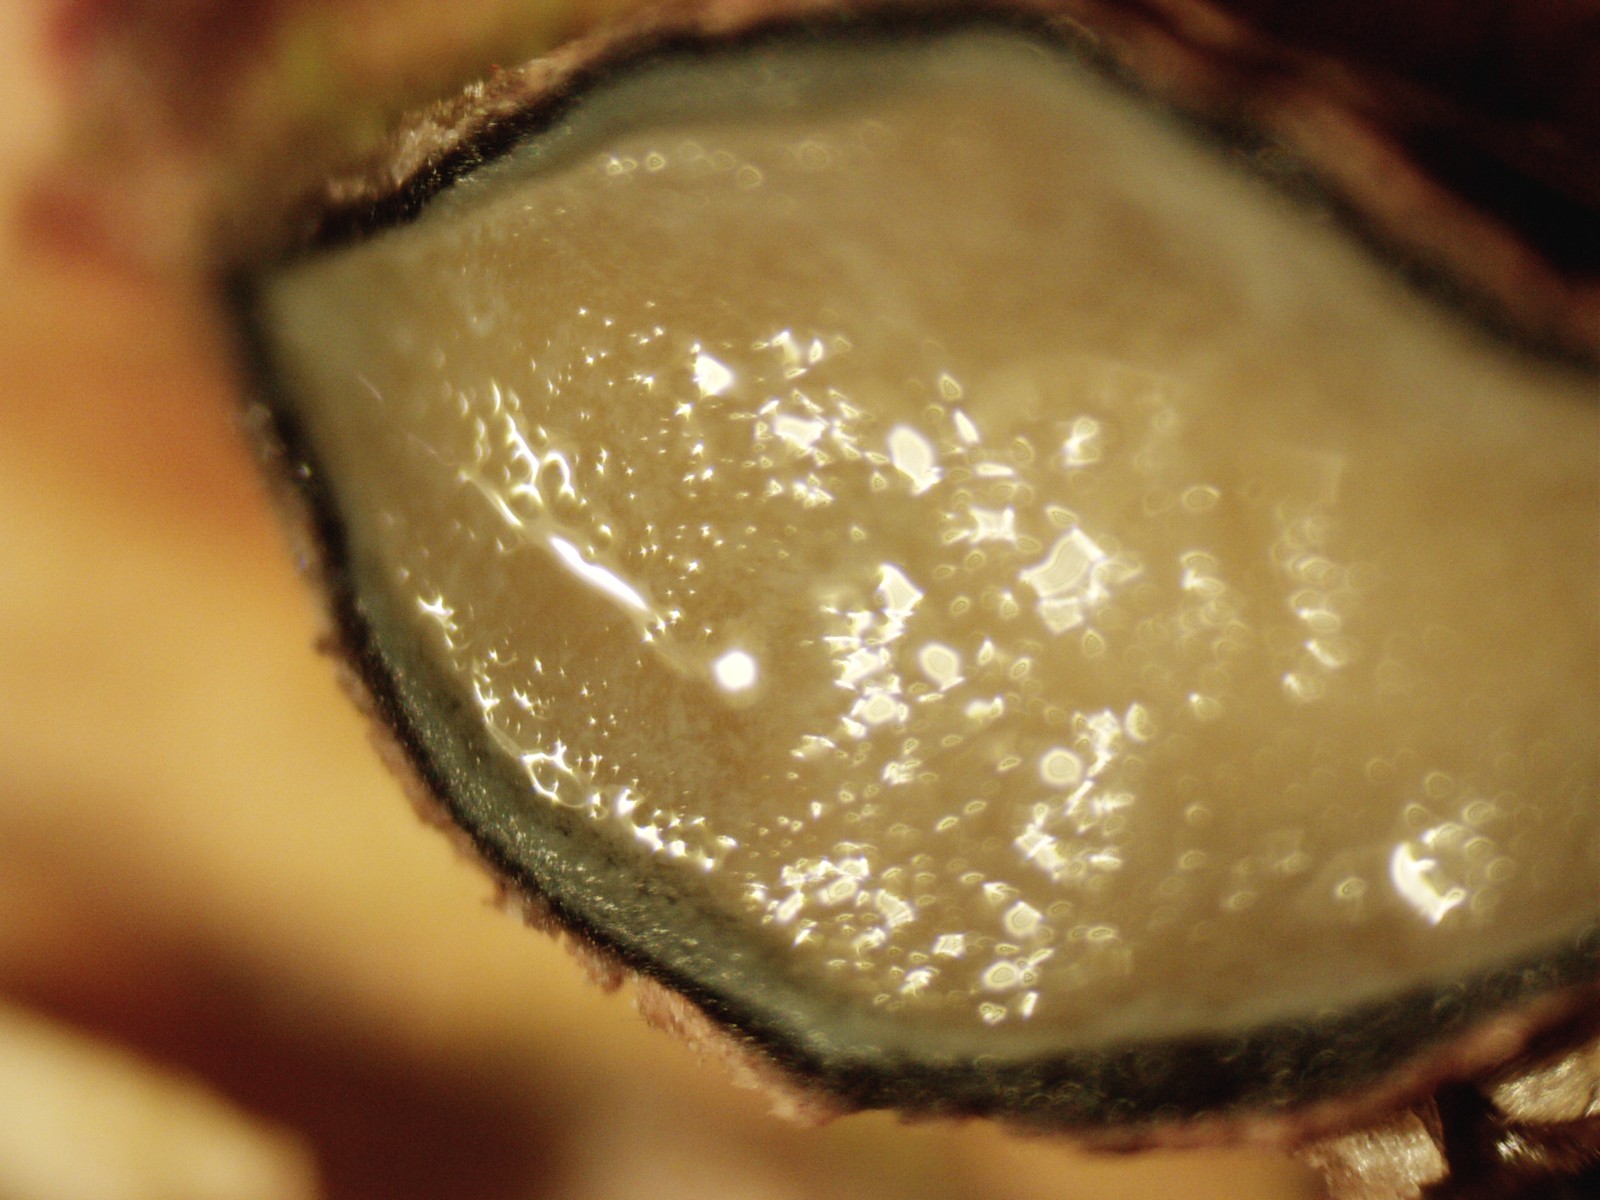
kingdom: Fungi
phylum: Ascomycota
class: Leotiomycetes
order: Rhytismatales
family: Rhytismataceae
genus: Colpoma
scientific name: Colpoma quercinum
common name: ege-sprækkeskive
